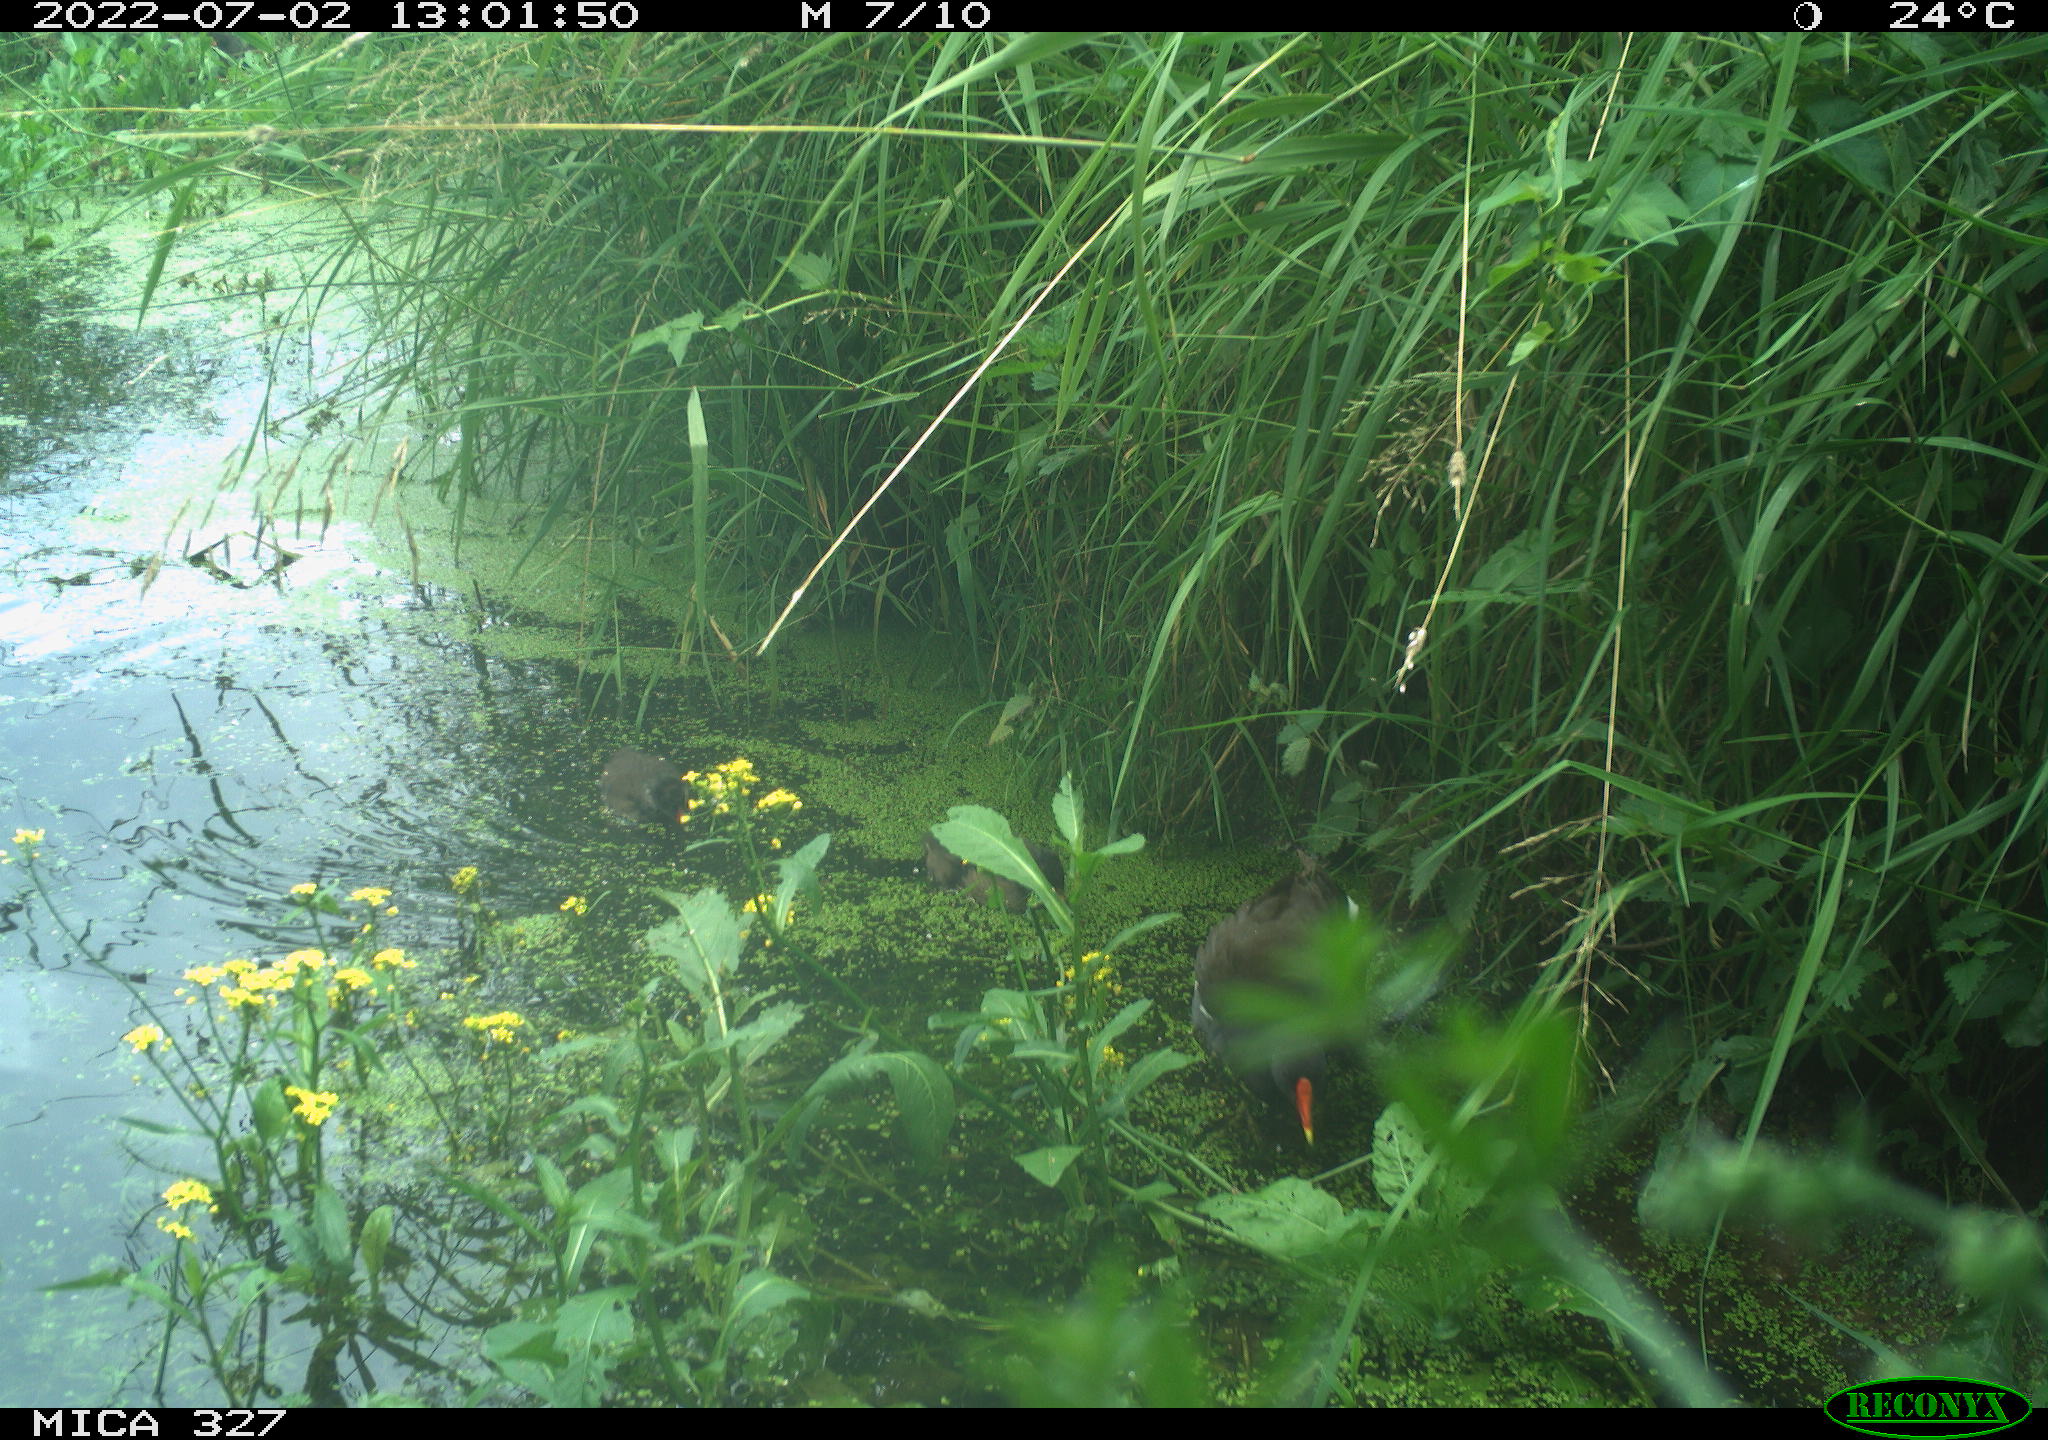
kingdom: Animalia
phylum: Chordata
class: Aves
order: Gruiformes
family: Rallidae
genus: Gallinula
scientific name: Gallinula chloropus
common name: Common moorhen
